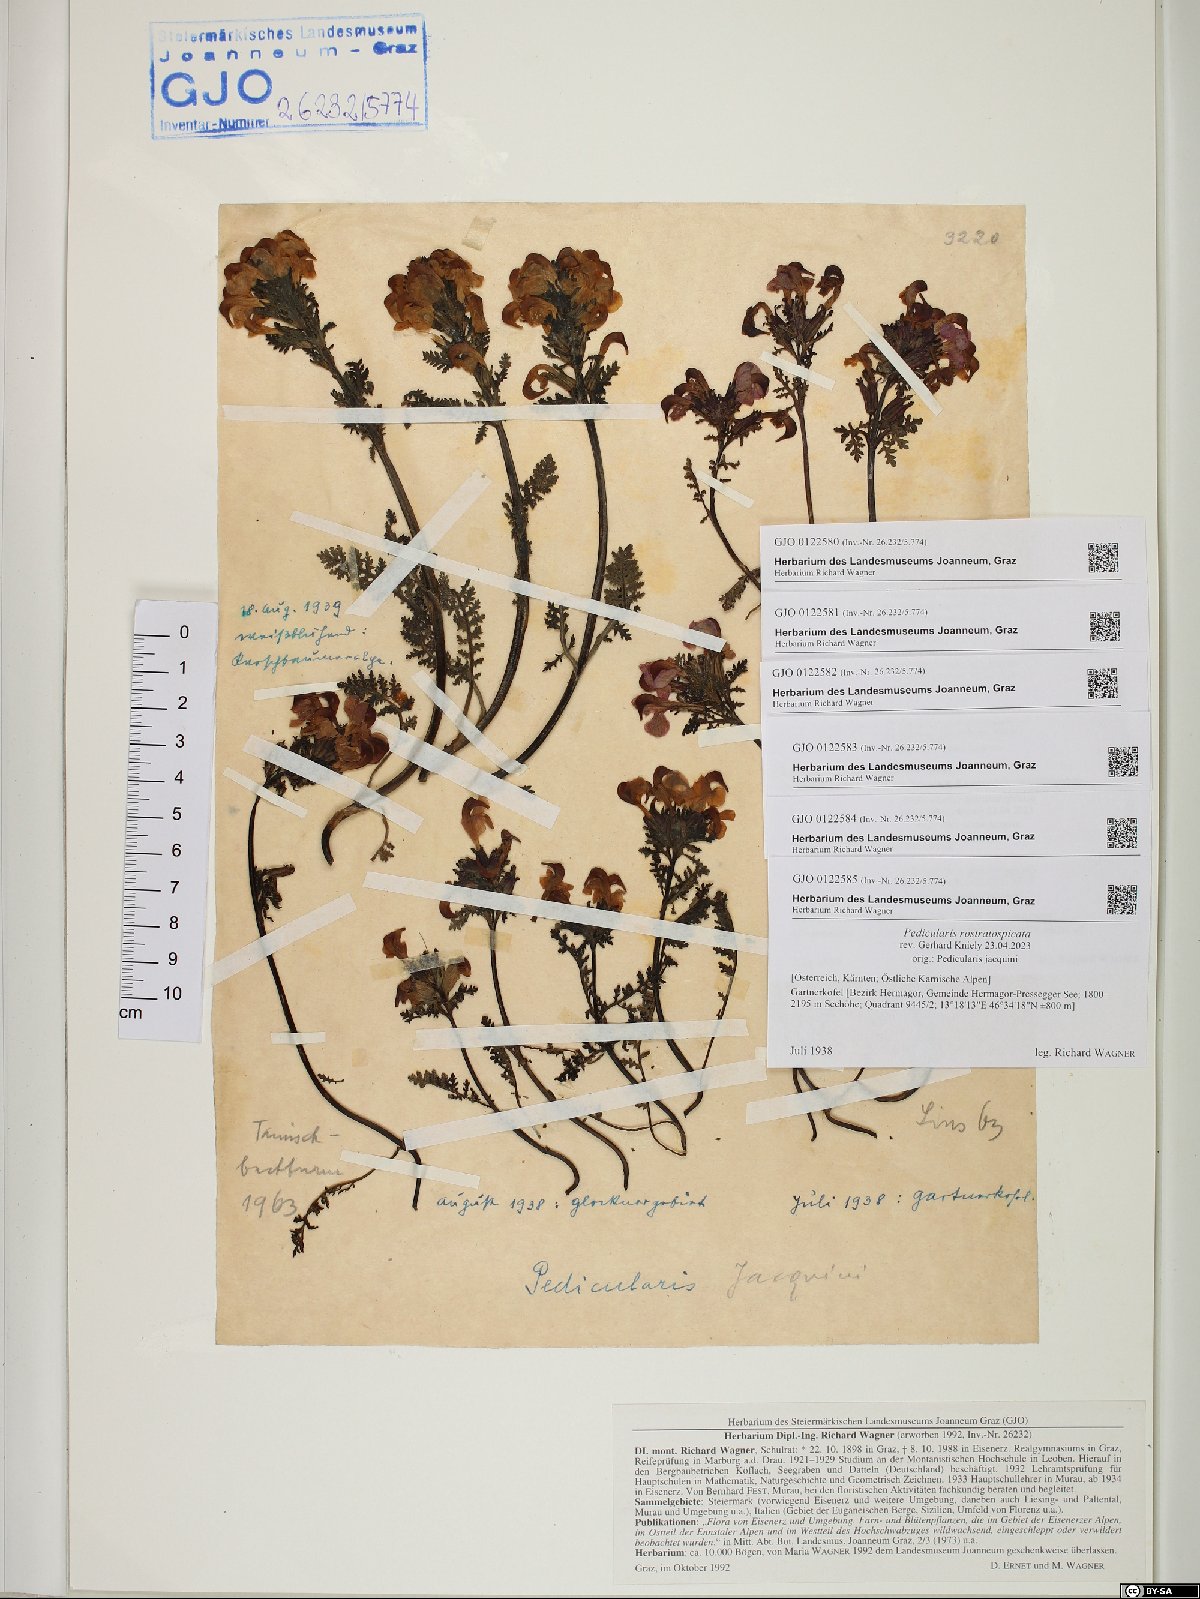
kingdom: Plantae
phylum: Tracheophyta
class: Magnoliopsida
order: Lamiales
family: Orobanchaceae
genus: Pedicularis
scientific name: Pedicularis rostratocapitata
